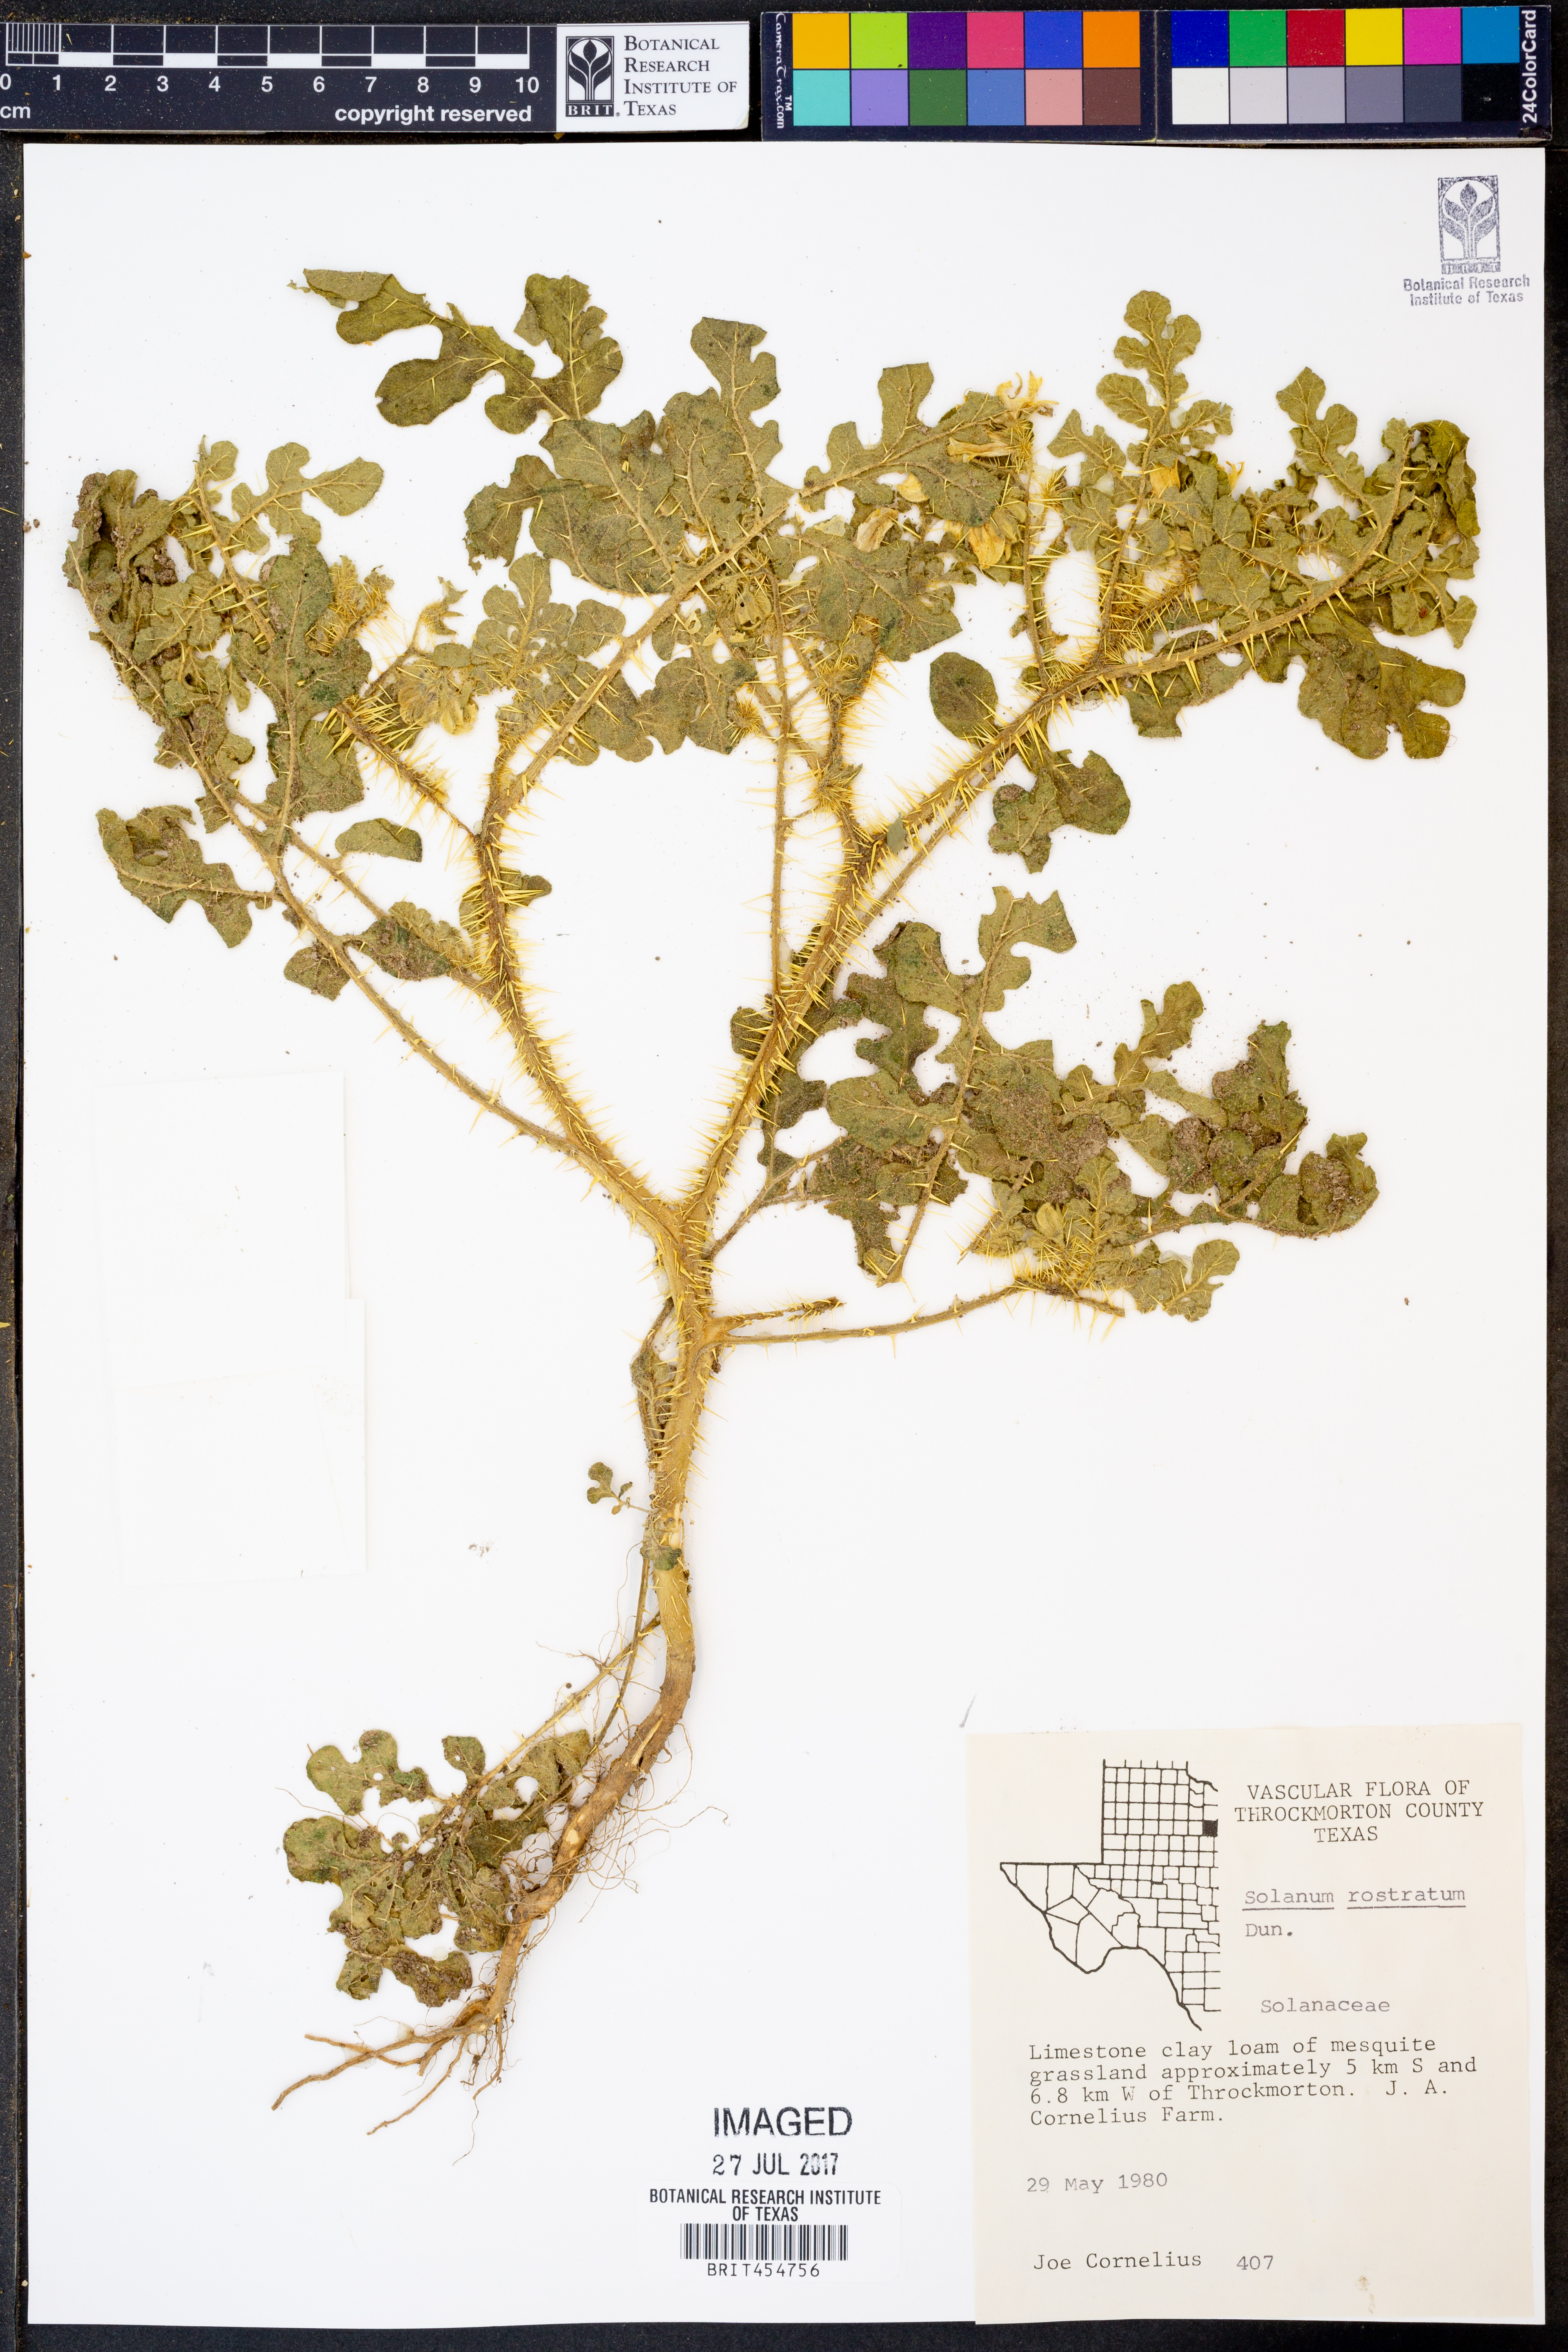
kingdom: Plantae
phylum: Tracheophyta
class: Magnoliopsida
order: Solanales
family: Solanaceae
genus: Solanum
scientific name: Solanum angustifolium
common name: Buffalobur nightshade
